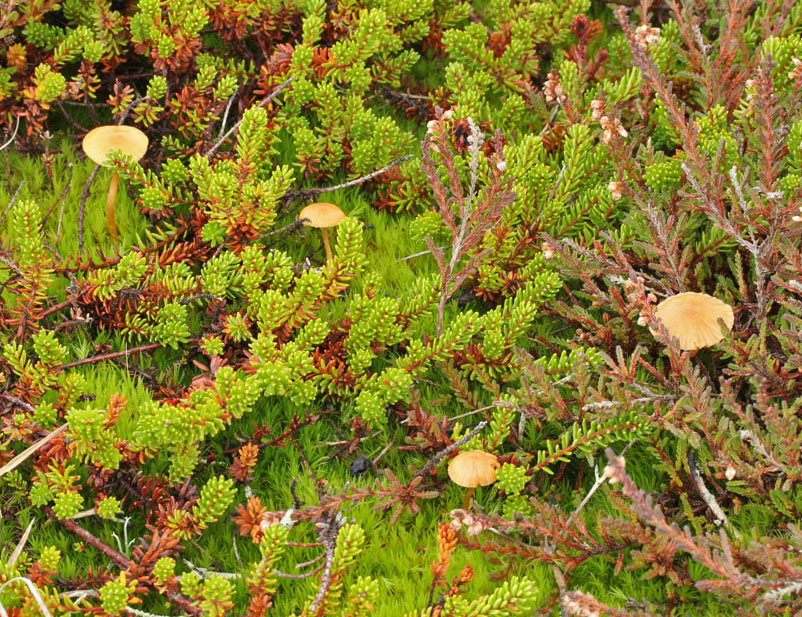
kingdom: Fungi
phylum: Basidiomycota
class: Agaricomycetes
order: Agaricales
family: Hymenogastraceae
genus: Galerina
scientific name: Galerina pumila
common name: honninggul hjelmhat
